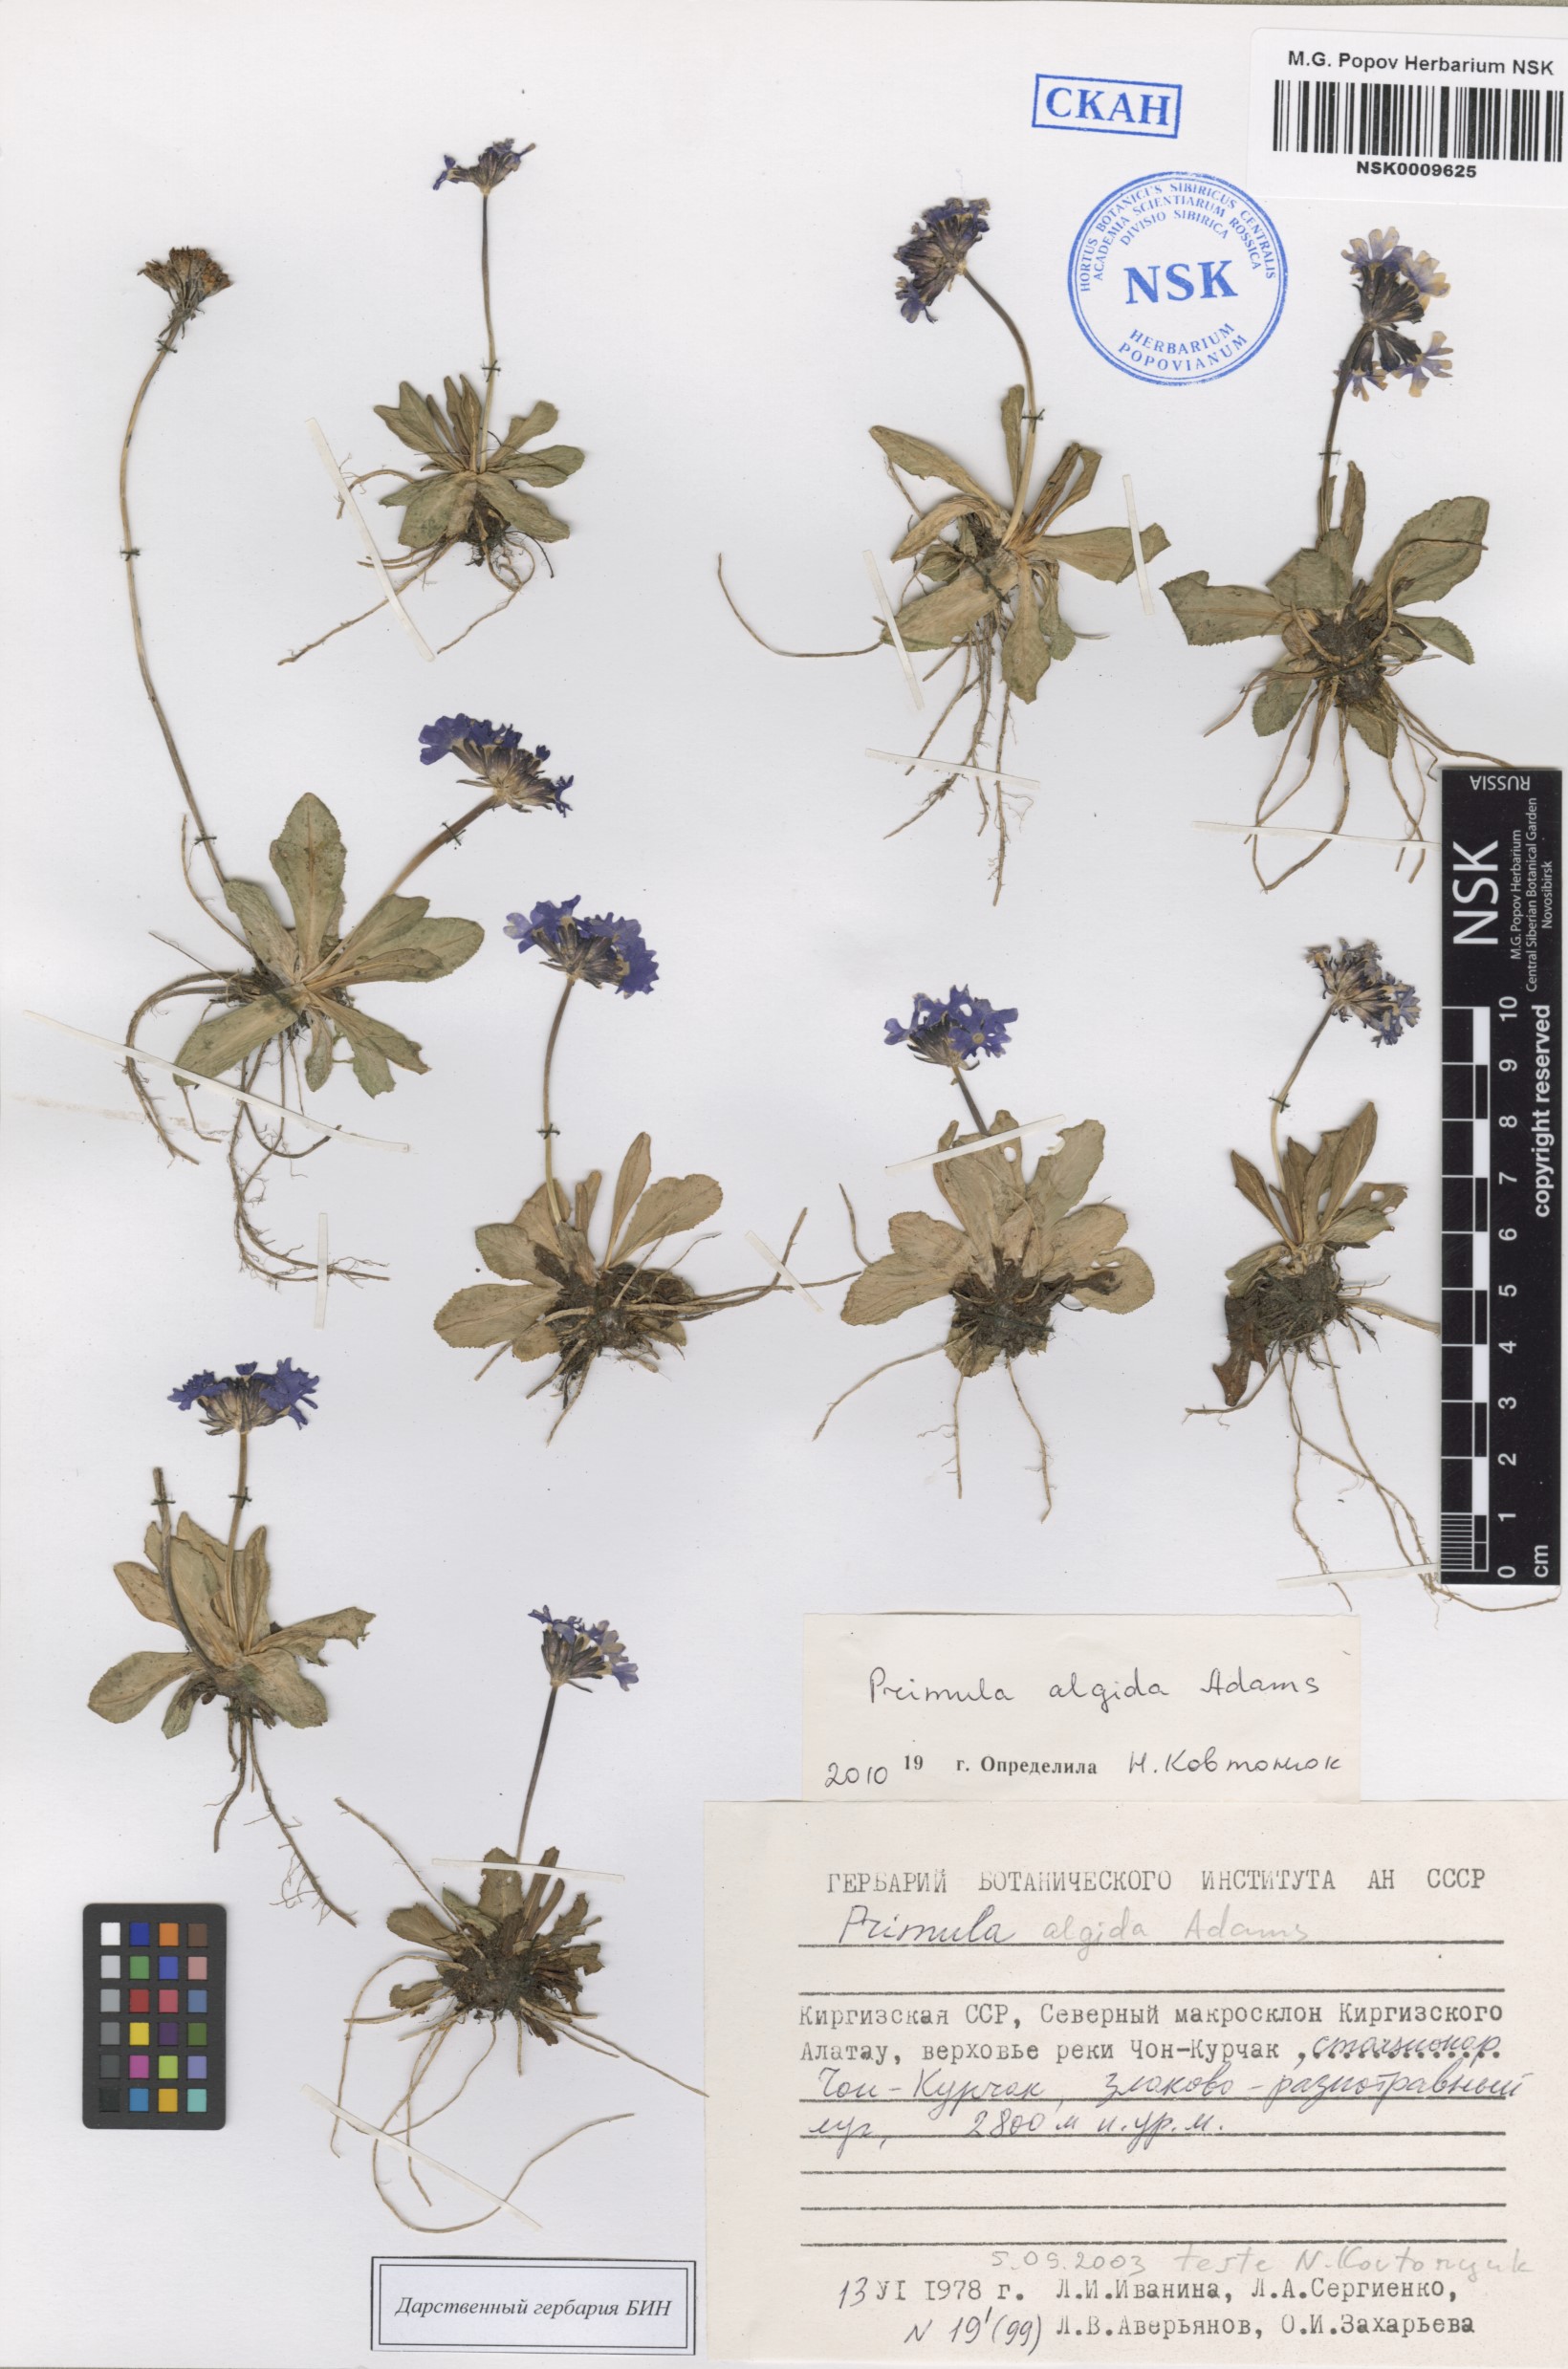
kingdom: Plantae
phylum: Tracheophyta
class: Magnoliopsida
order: Ericales
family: Primulaceae
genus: Primula
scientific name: Primula algida
